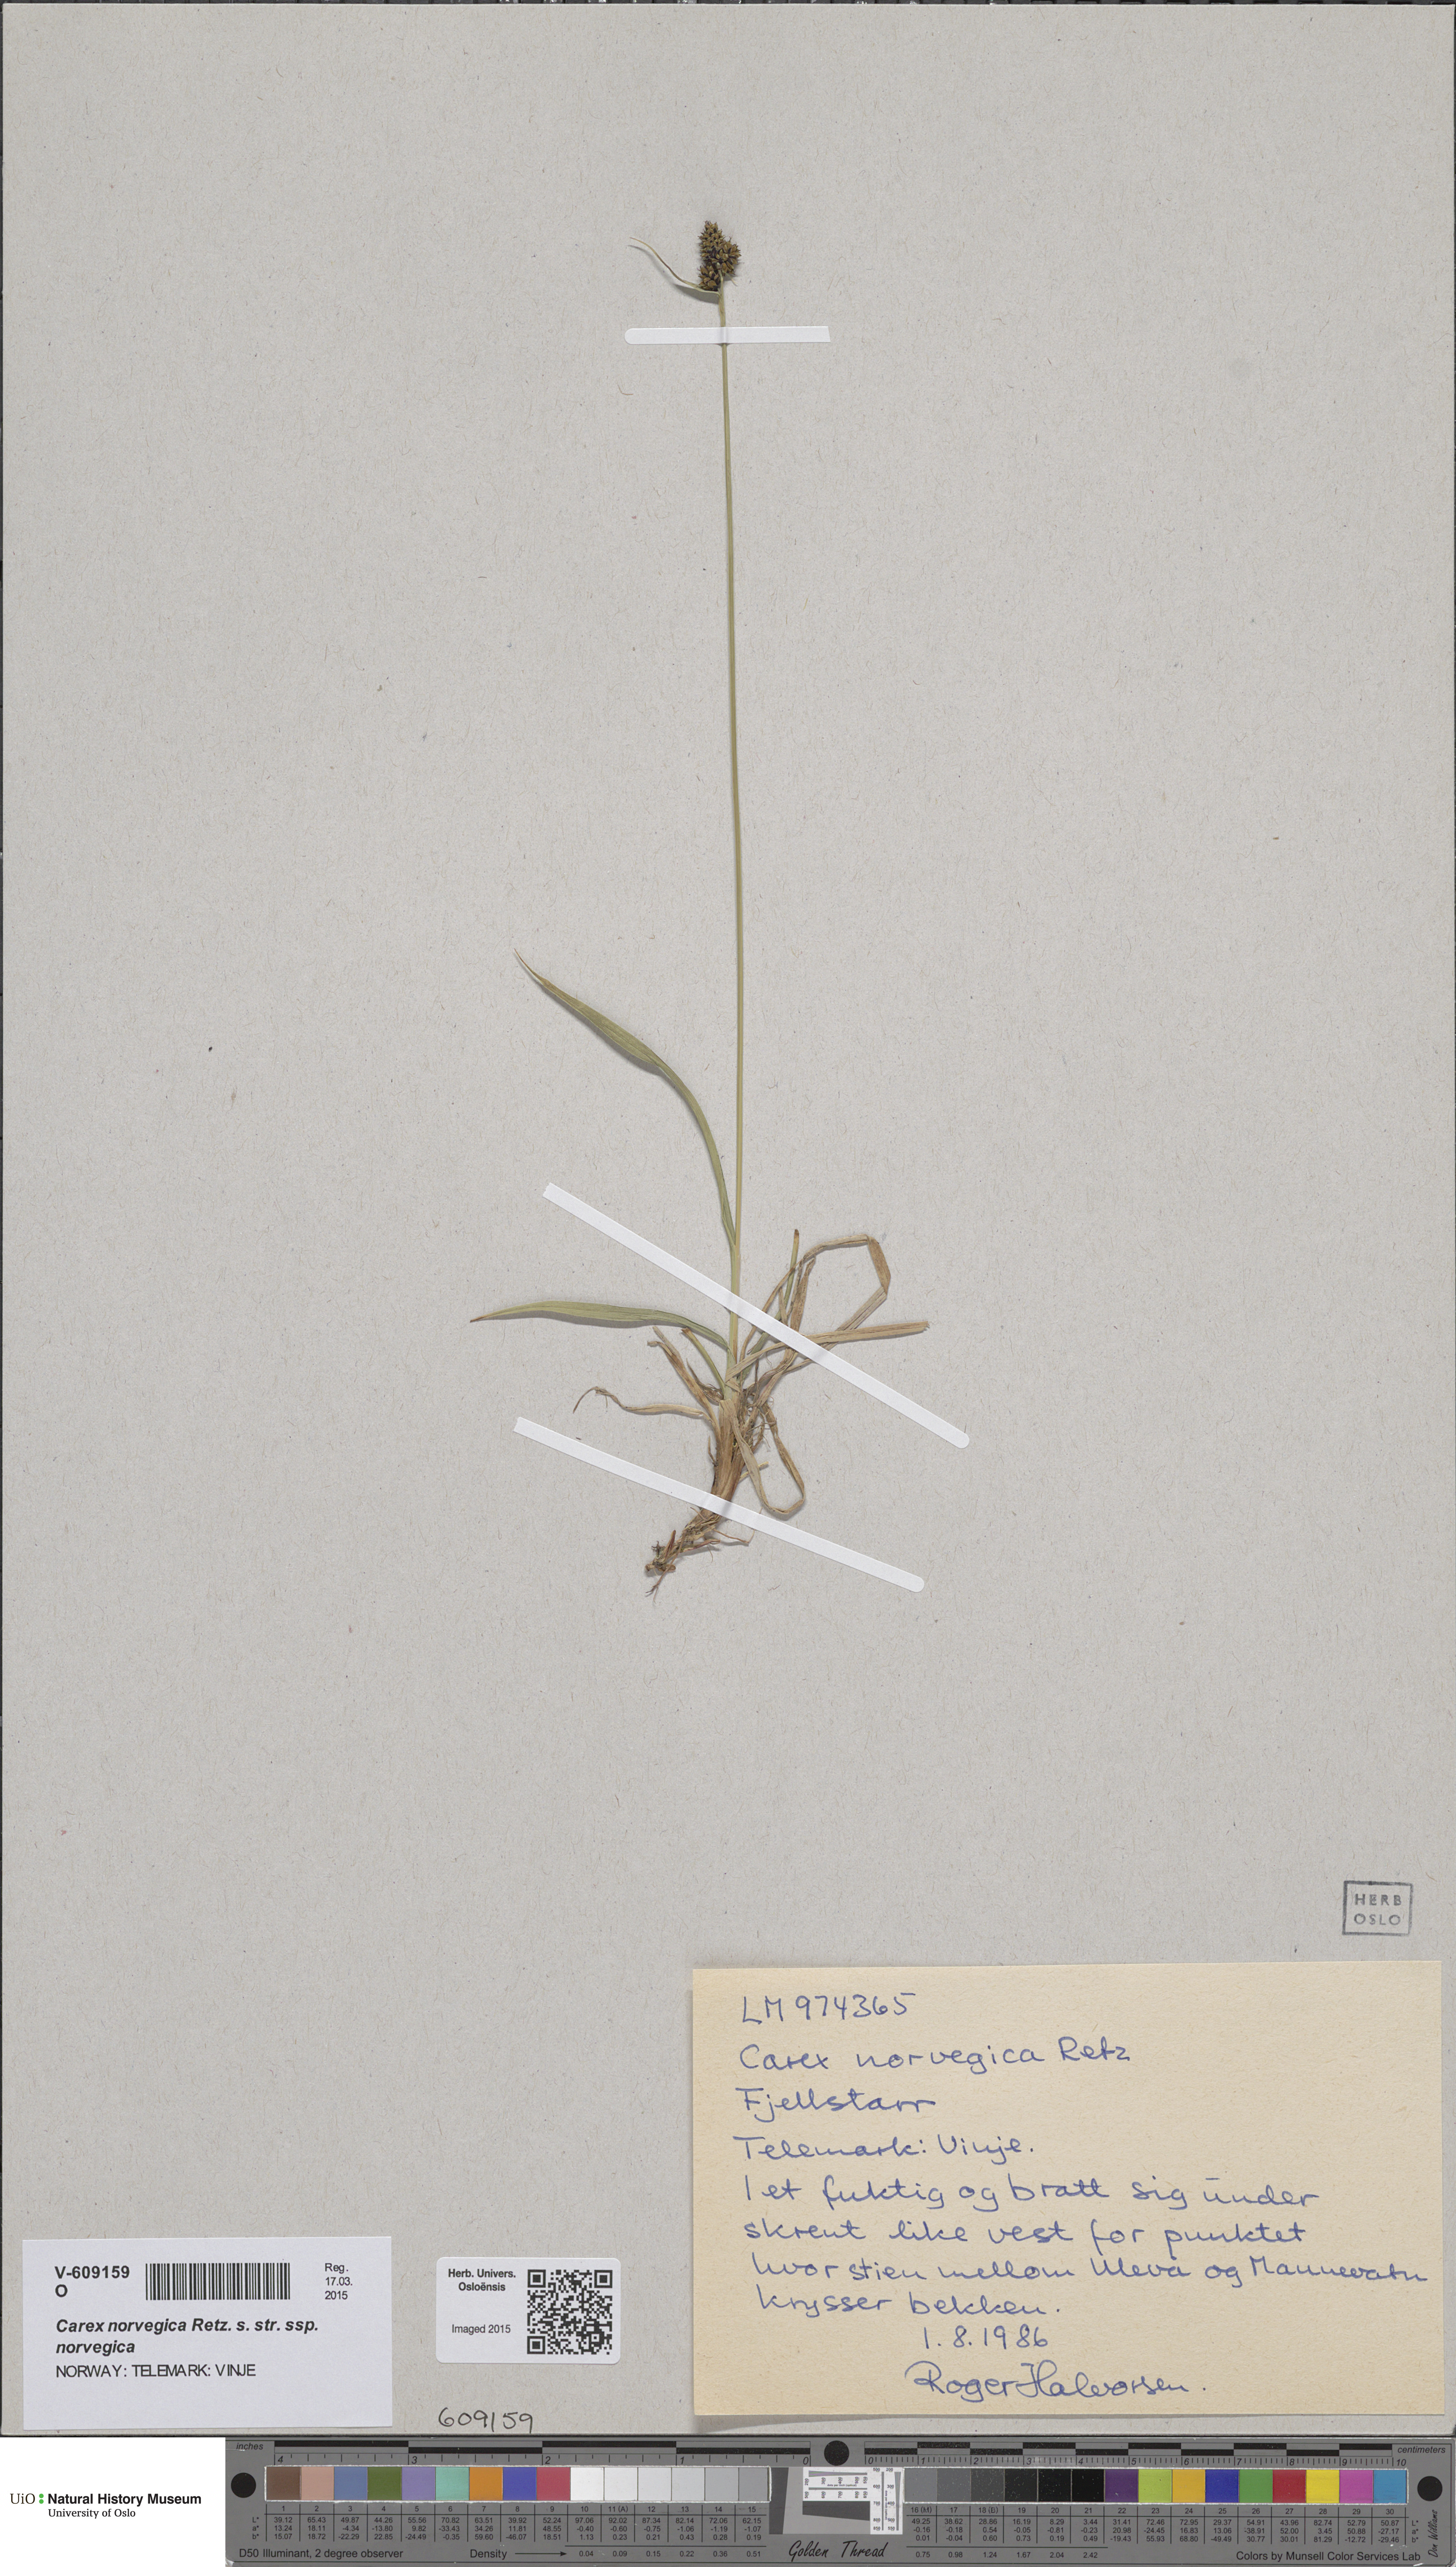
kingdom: Plantae
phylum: Tracheophyta
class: Liliopsida
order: Poales
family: Cyperaceae
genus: Carex
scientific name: Carex norvegica
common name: Close-headed alpine-sedge
